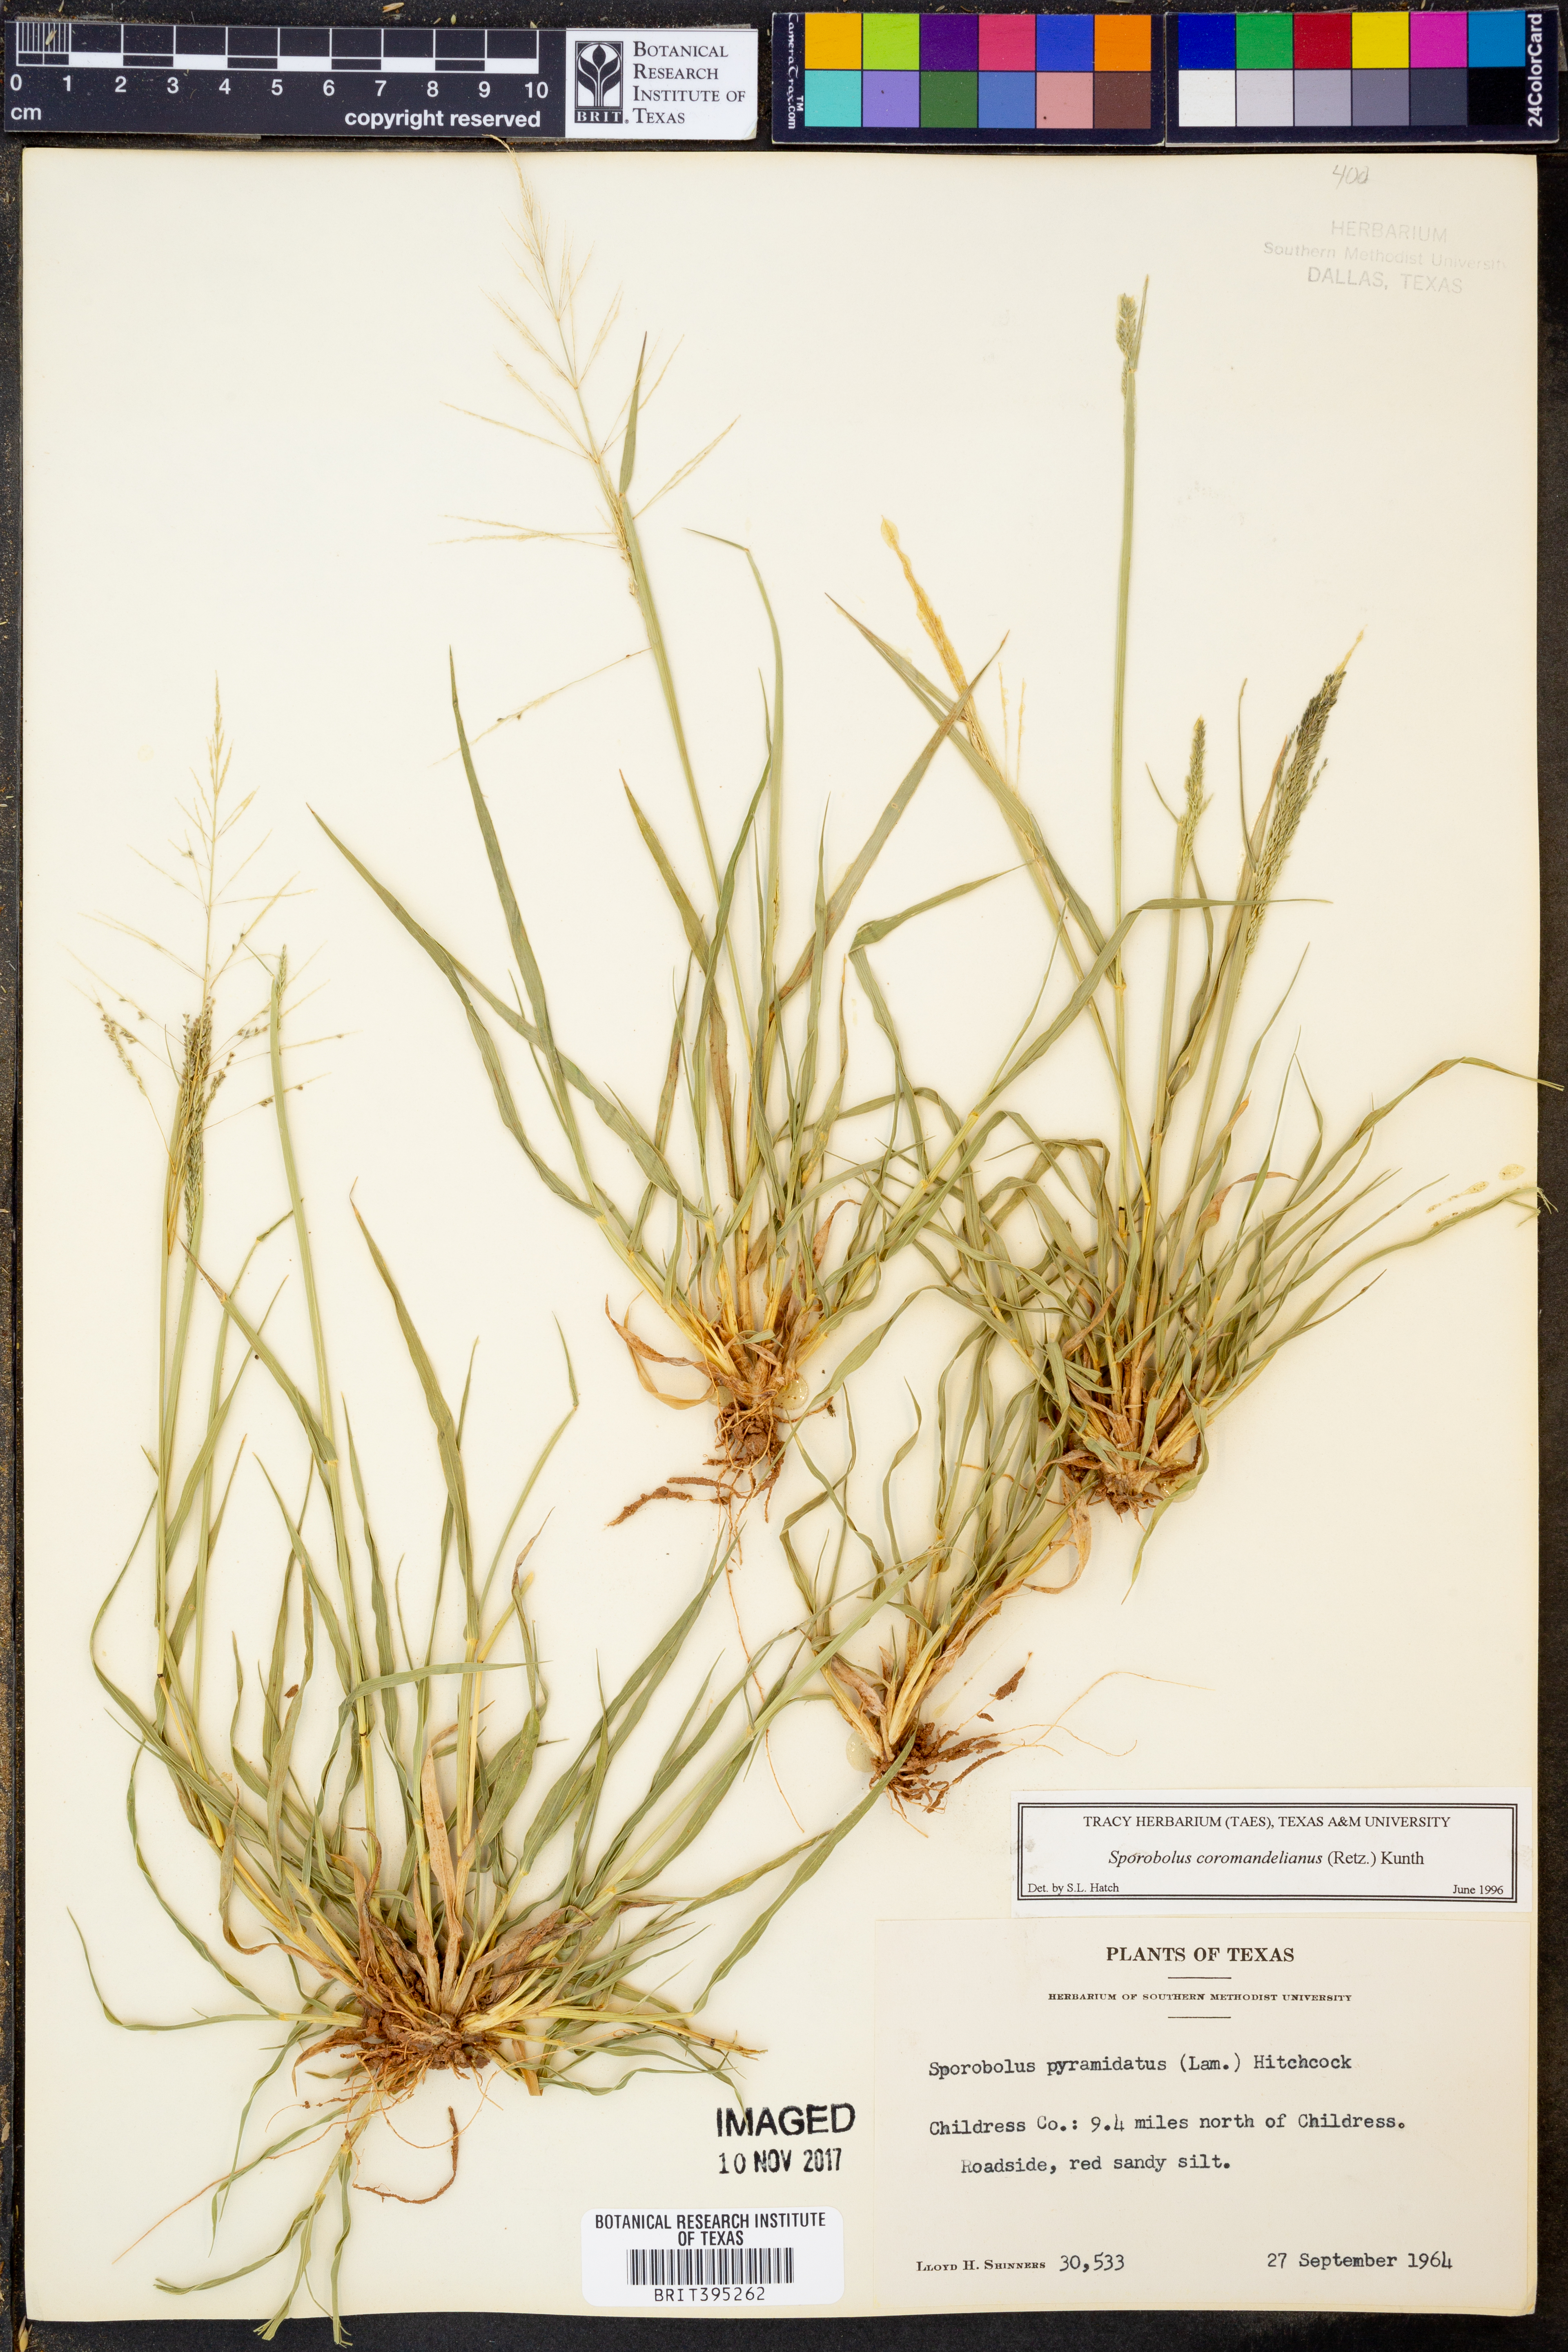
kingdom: Plantae
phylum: Tracheophyta
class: Liliopsida
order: Poales
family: Poaceae
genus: Sporobolus
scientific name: Sporobolus coromandelianus
